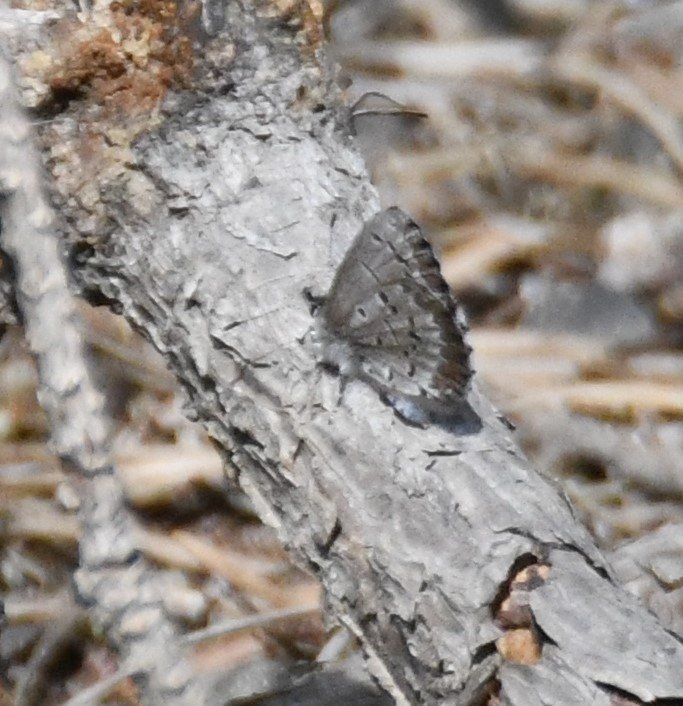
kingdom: Animalia
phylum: Arthropoda
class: Insecta
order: Lepidoptera
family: Lycaenidae
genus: Celastrina
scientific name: Celastrina lucia
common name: Northern Spring Azure
